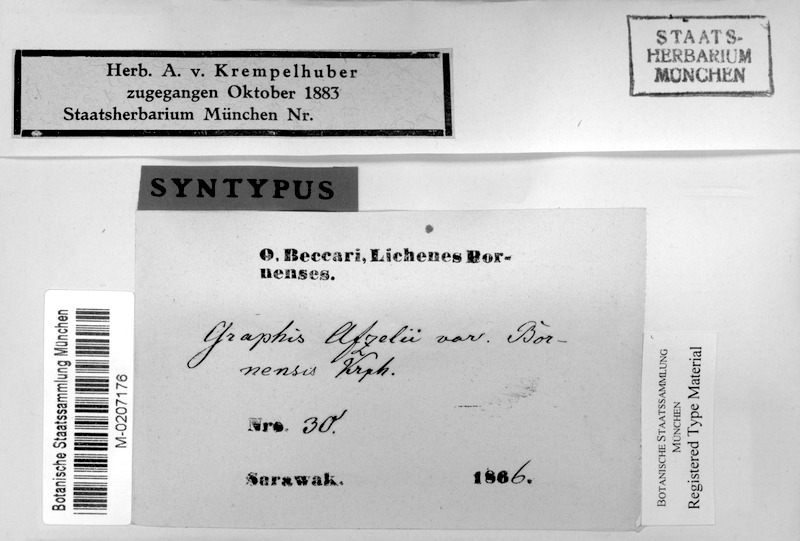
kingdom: Fungi
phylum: Ascomycota
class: Lecanoromycetes
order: Ostropales
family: Graphidaceae
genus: Dyplolabia
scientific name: Dyplolabia afzelii
